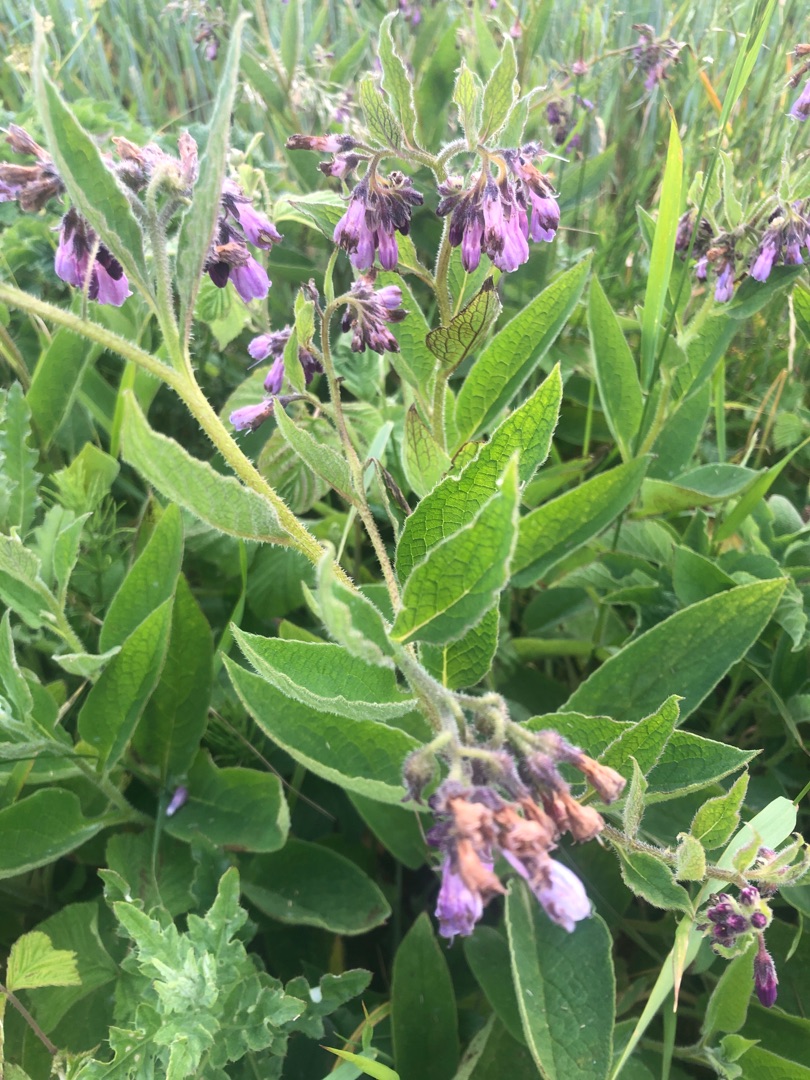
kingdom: Plantae
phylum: Tracheophyta
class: Magnoliopsida
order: Boraginales
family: Boraginaceae
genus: Symphytum
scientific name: Symphytum uplandicum
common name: Foder-kulsukker
